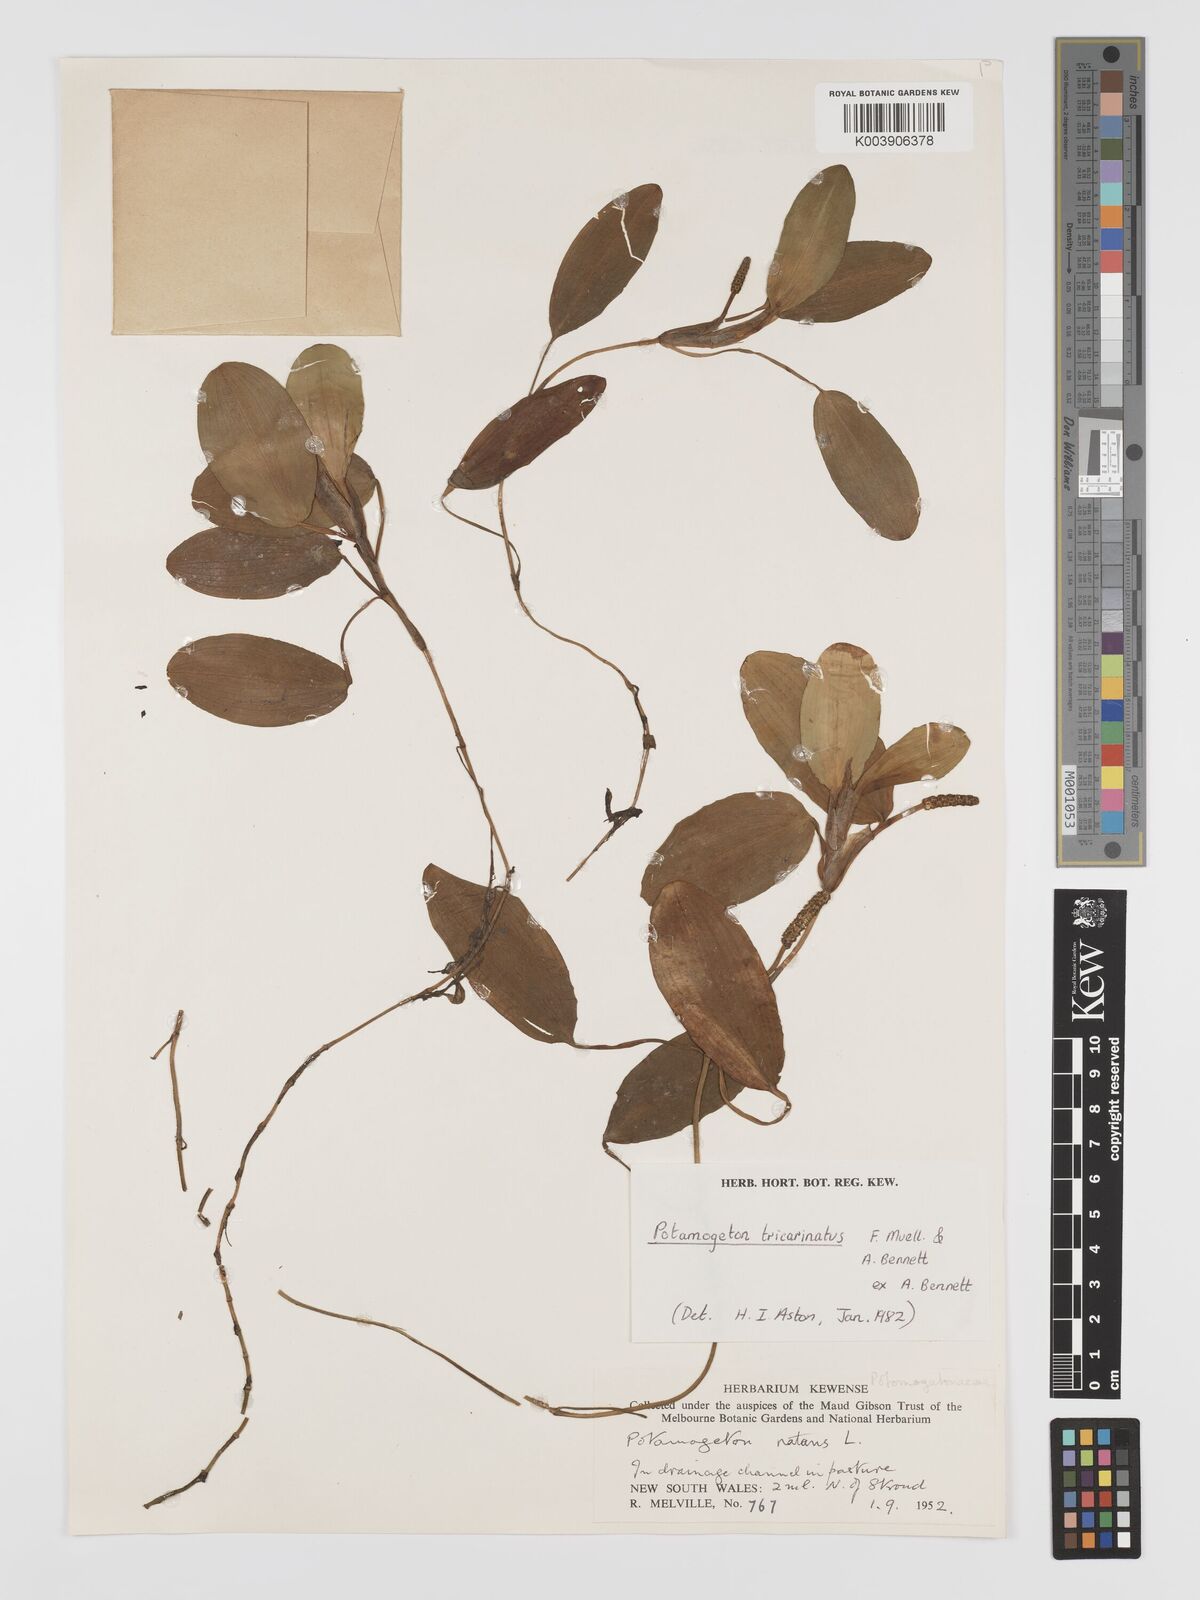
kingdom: Plantae
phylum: Tracheophyta
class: Liliopsida
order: Alismatales
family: Potamogetonaceae
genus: Potamogeton
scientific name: Potamogeton tricarinatus
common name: Pondweed
